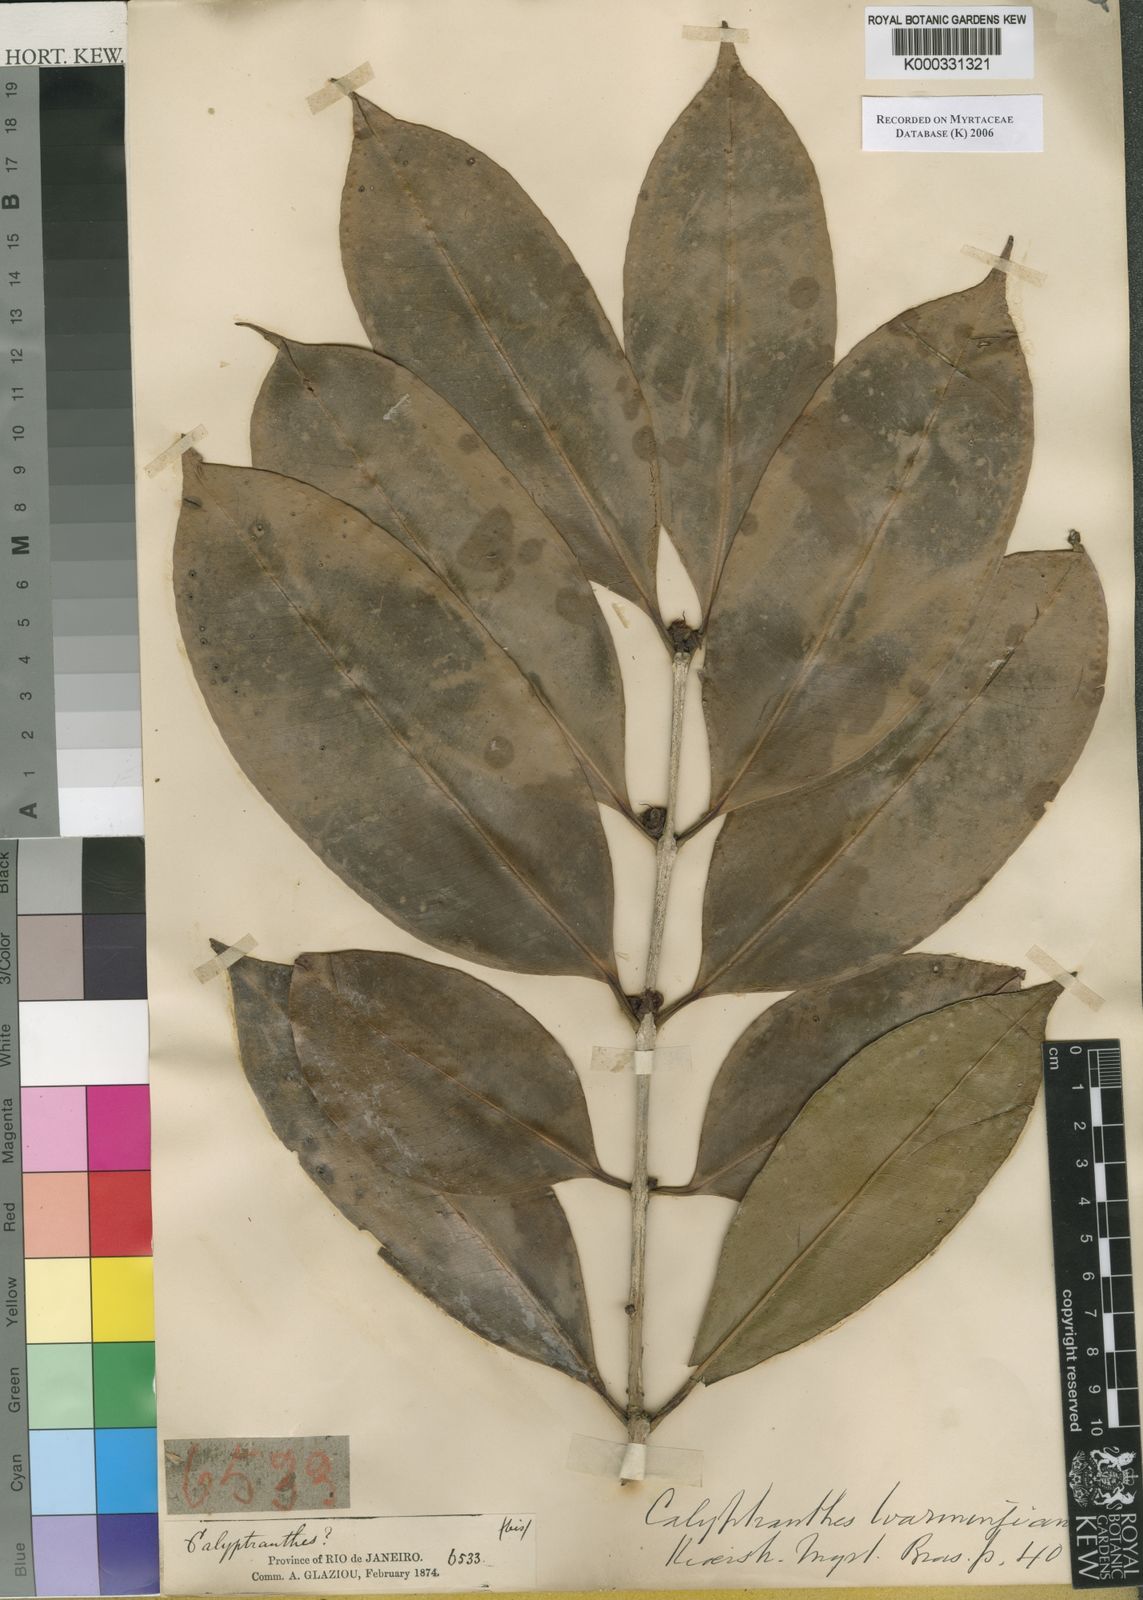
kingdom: Plantae
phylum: Tracheophyta
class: Magnoliopsida
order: Myrtales
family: Myrtaceae
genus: Neomitranthes
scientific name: Neomitranthes warmingiana
